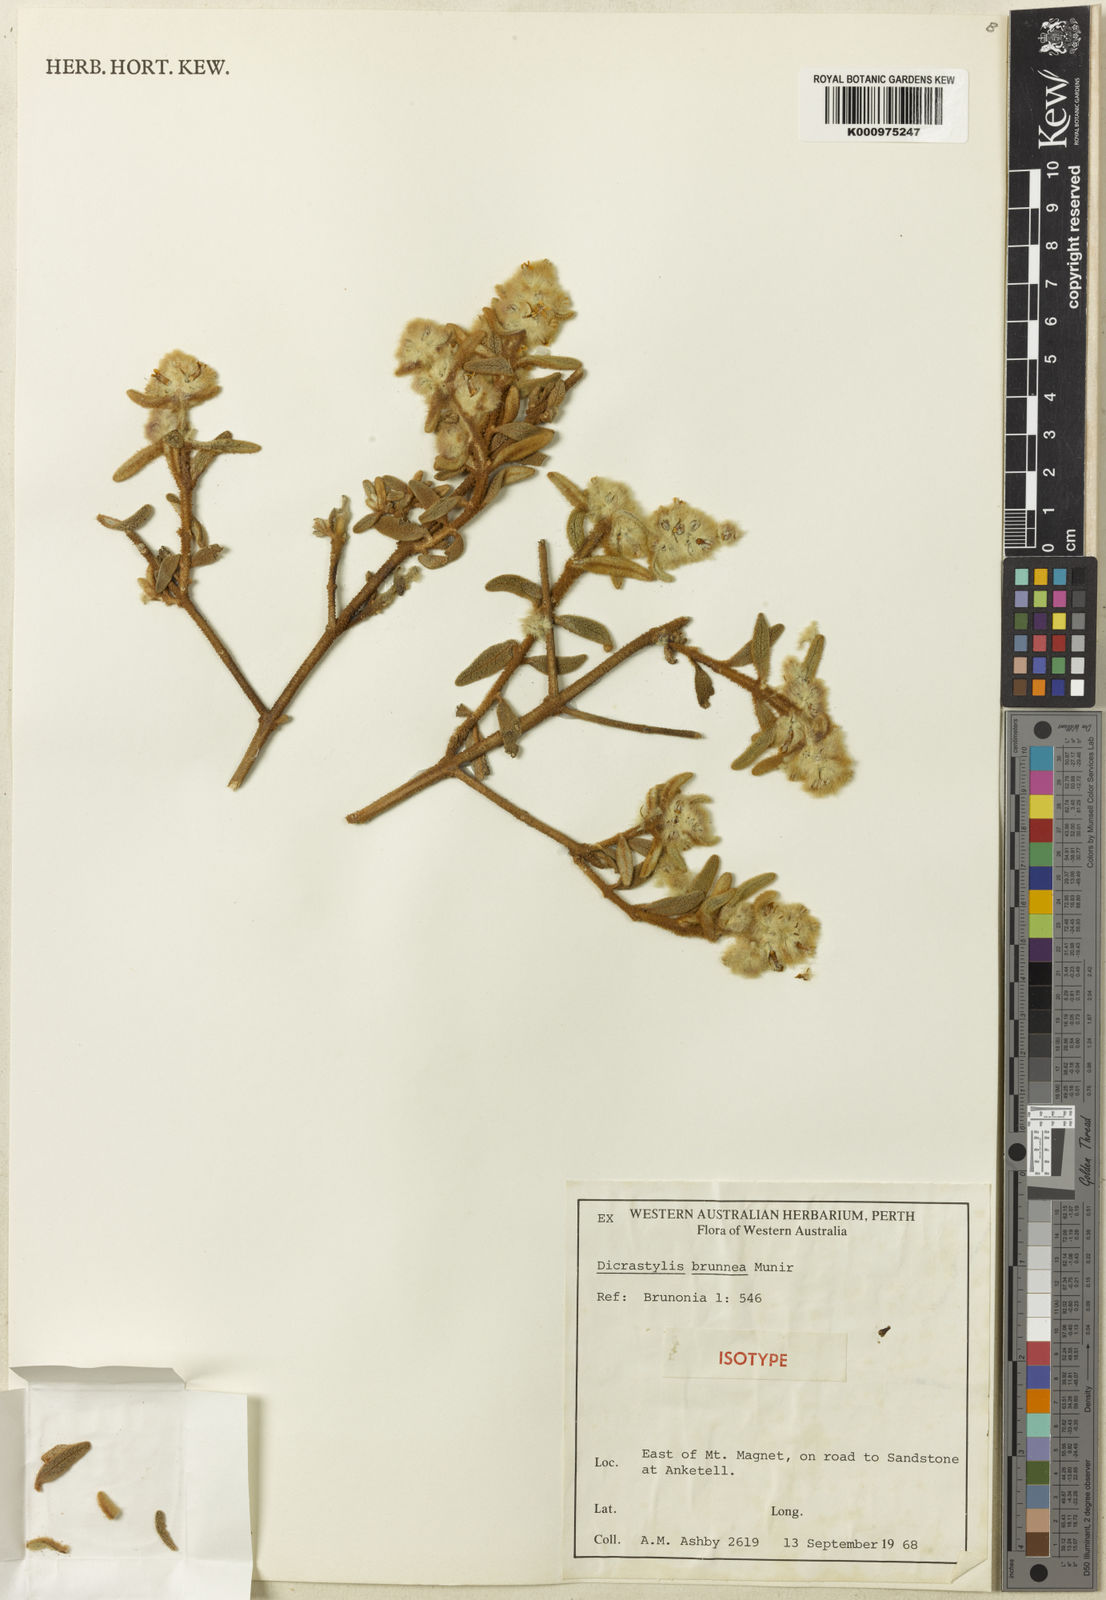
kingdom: Plantae
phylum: Tracheophyta
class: Magnoliopsida
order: Lamiales
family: Lamiaceae
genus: Dicrastylis
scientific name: Dicrastylis brunnea
